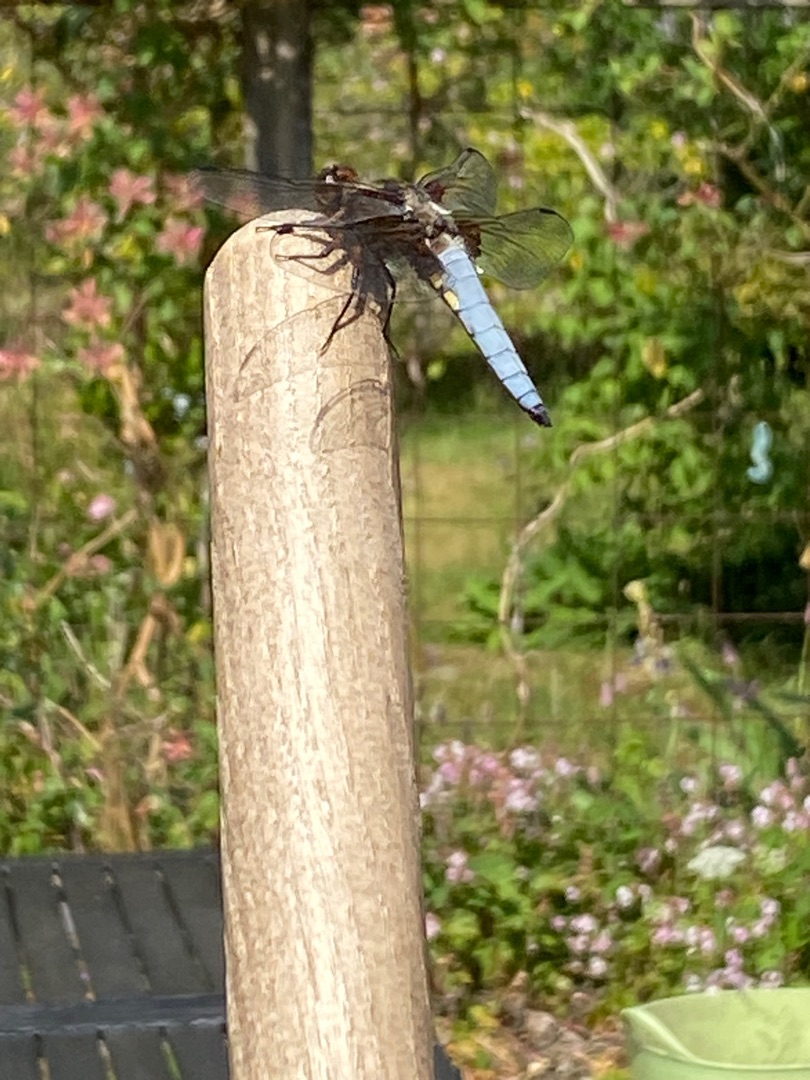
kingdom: Animalia
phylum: Arthropoda
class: Insecta
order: Odonata
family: Libellulidae
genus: Libellula
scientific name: Libellula depressa
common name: Blå libel
